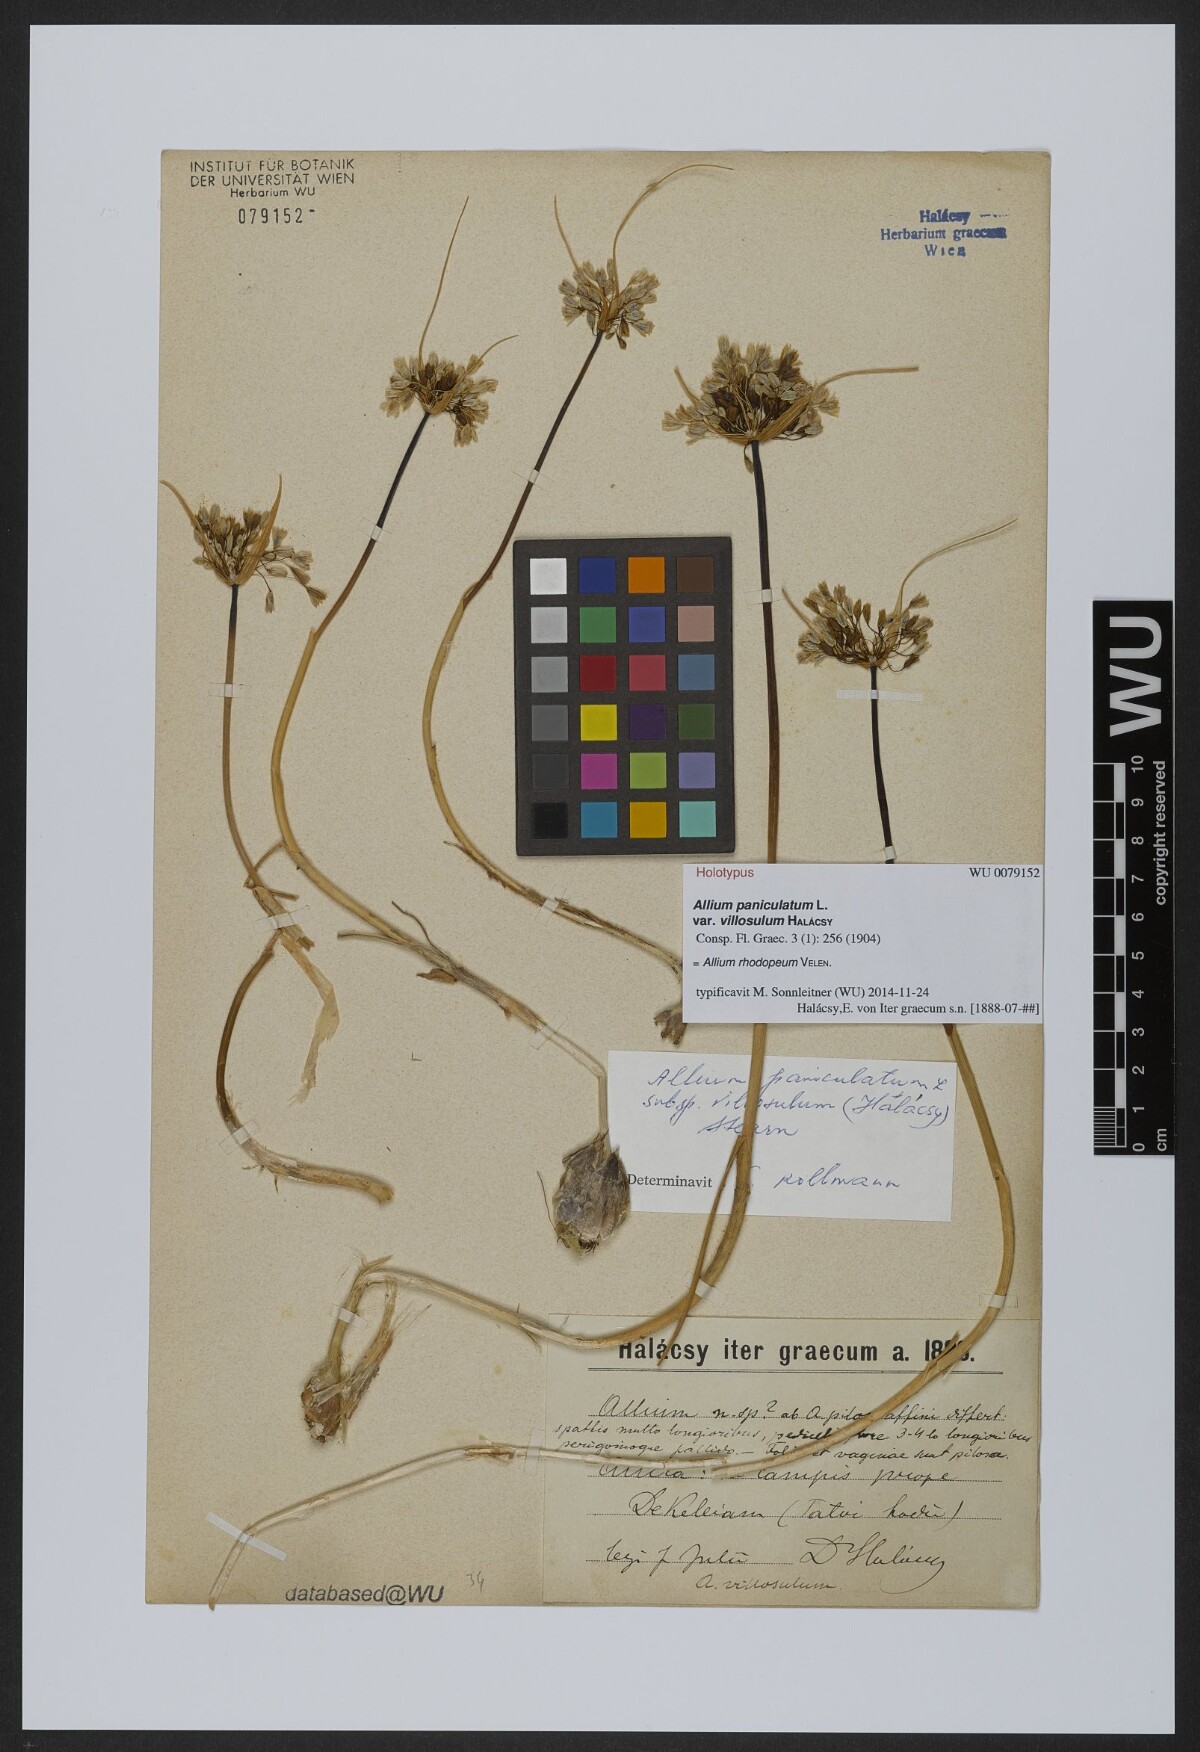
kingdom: Plantae
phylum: Tracheophyta
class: Liliopsida
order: Asparagales
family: Amaryllidaceae
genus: Allium
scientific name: Allium rhodopeum
